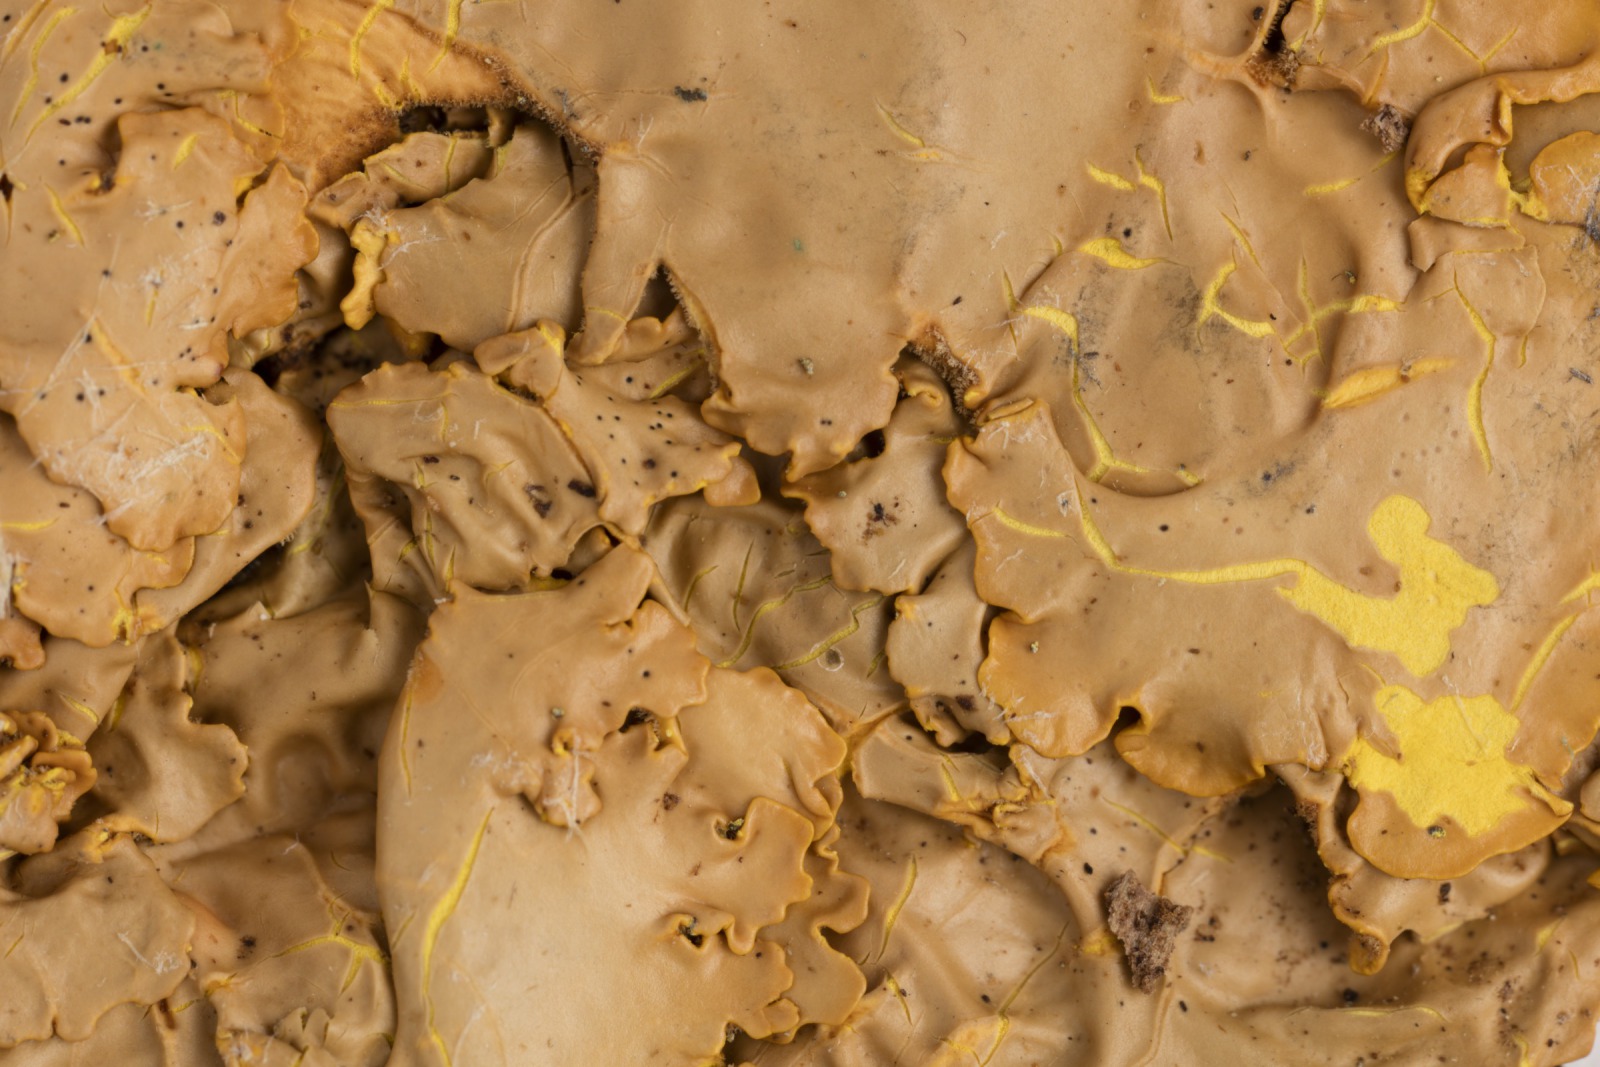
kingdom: Fungi
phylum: Ascomycota
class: Lecanoromycetes
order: Peltigerales
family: Lobariaceae
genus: Pseudocyphellaria
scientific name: Pseudocyphellaria crocata
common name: Golden specklebelly
